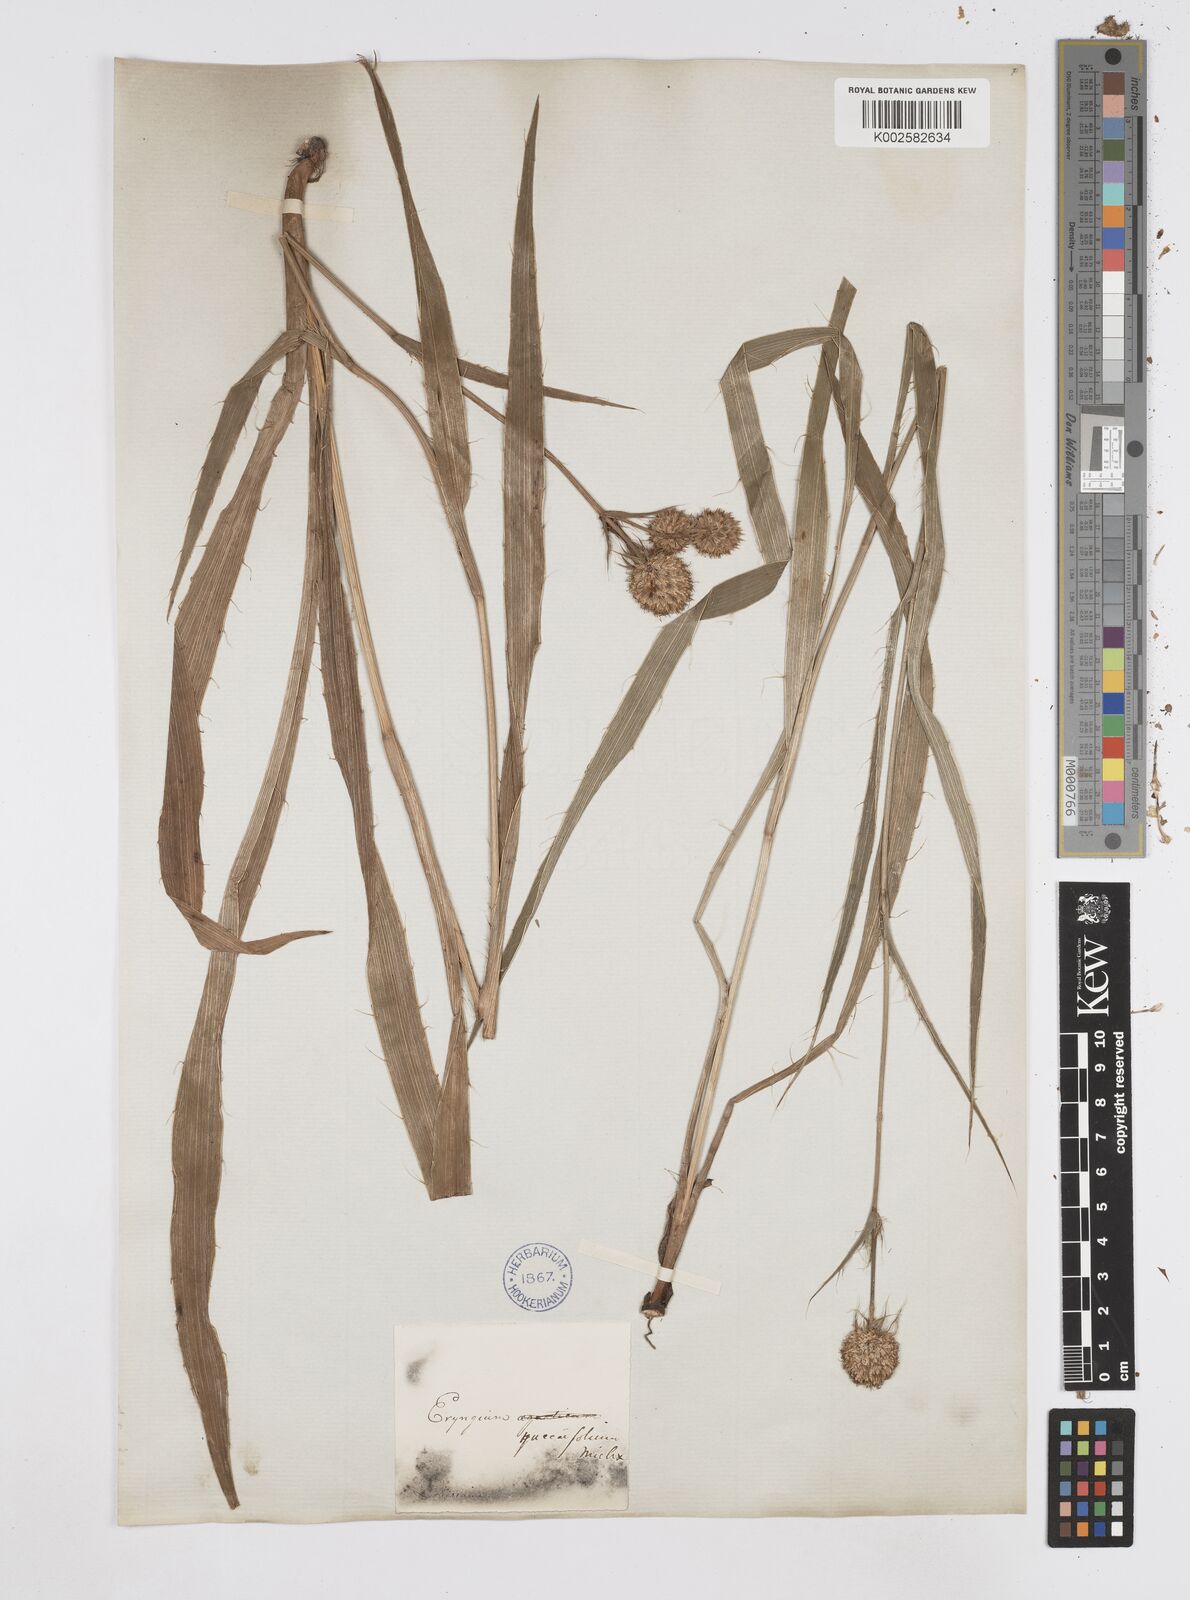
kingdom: Plantae
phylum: Tracheophyta
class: Magnoliopsida
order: Apiales
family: Apiaceae
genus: Eryngium
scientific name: Eryngium yuccifolium
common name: Button eryngo
